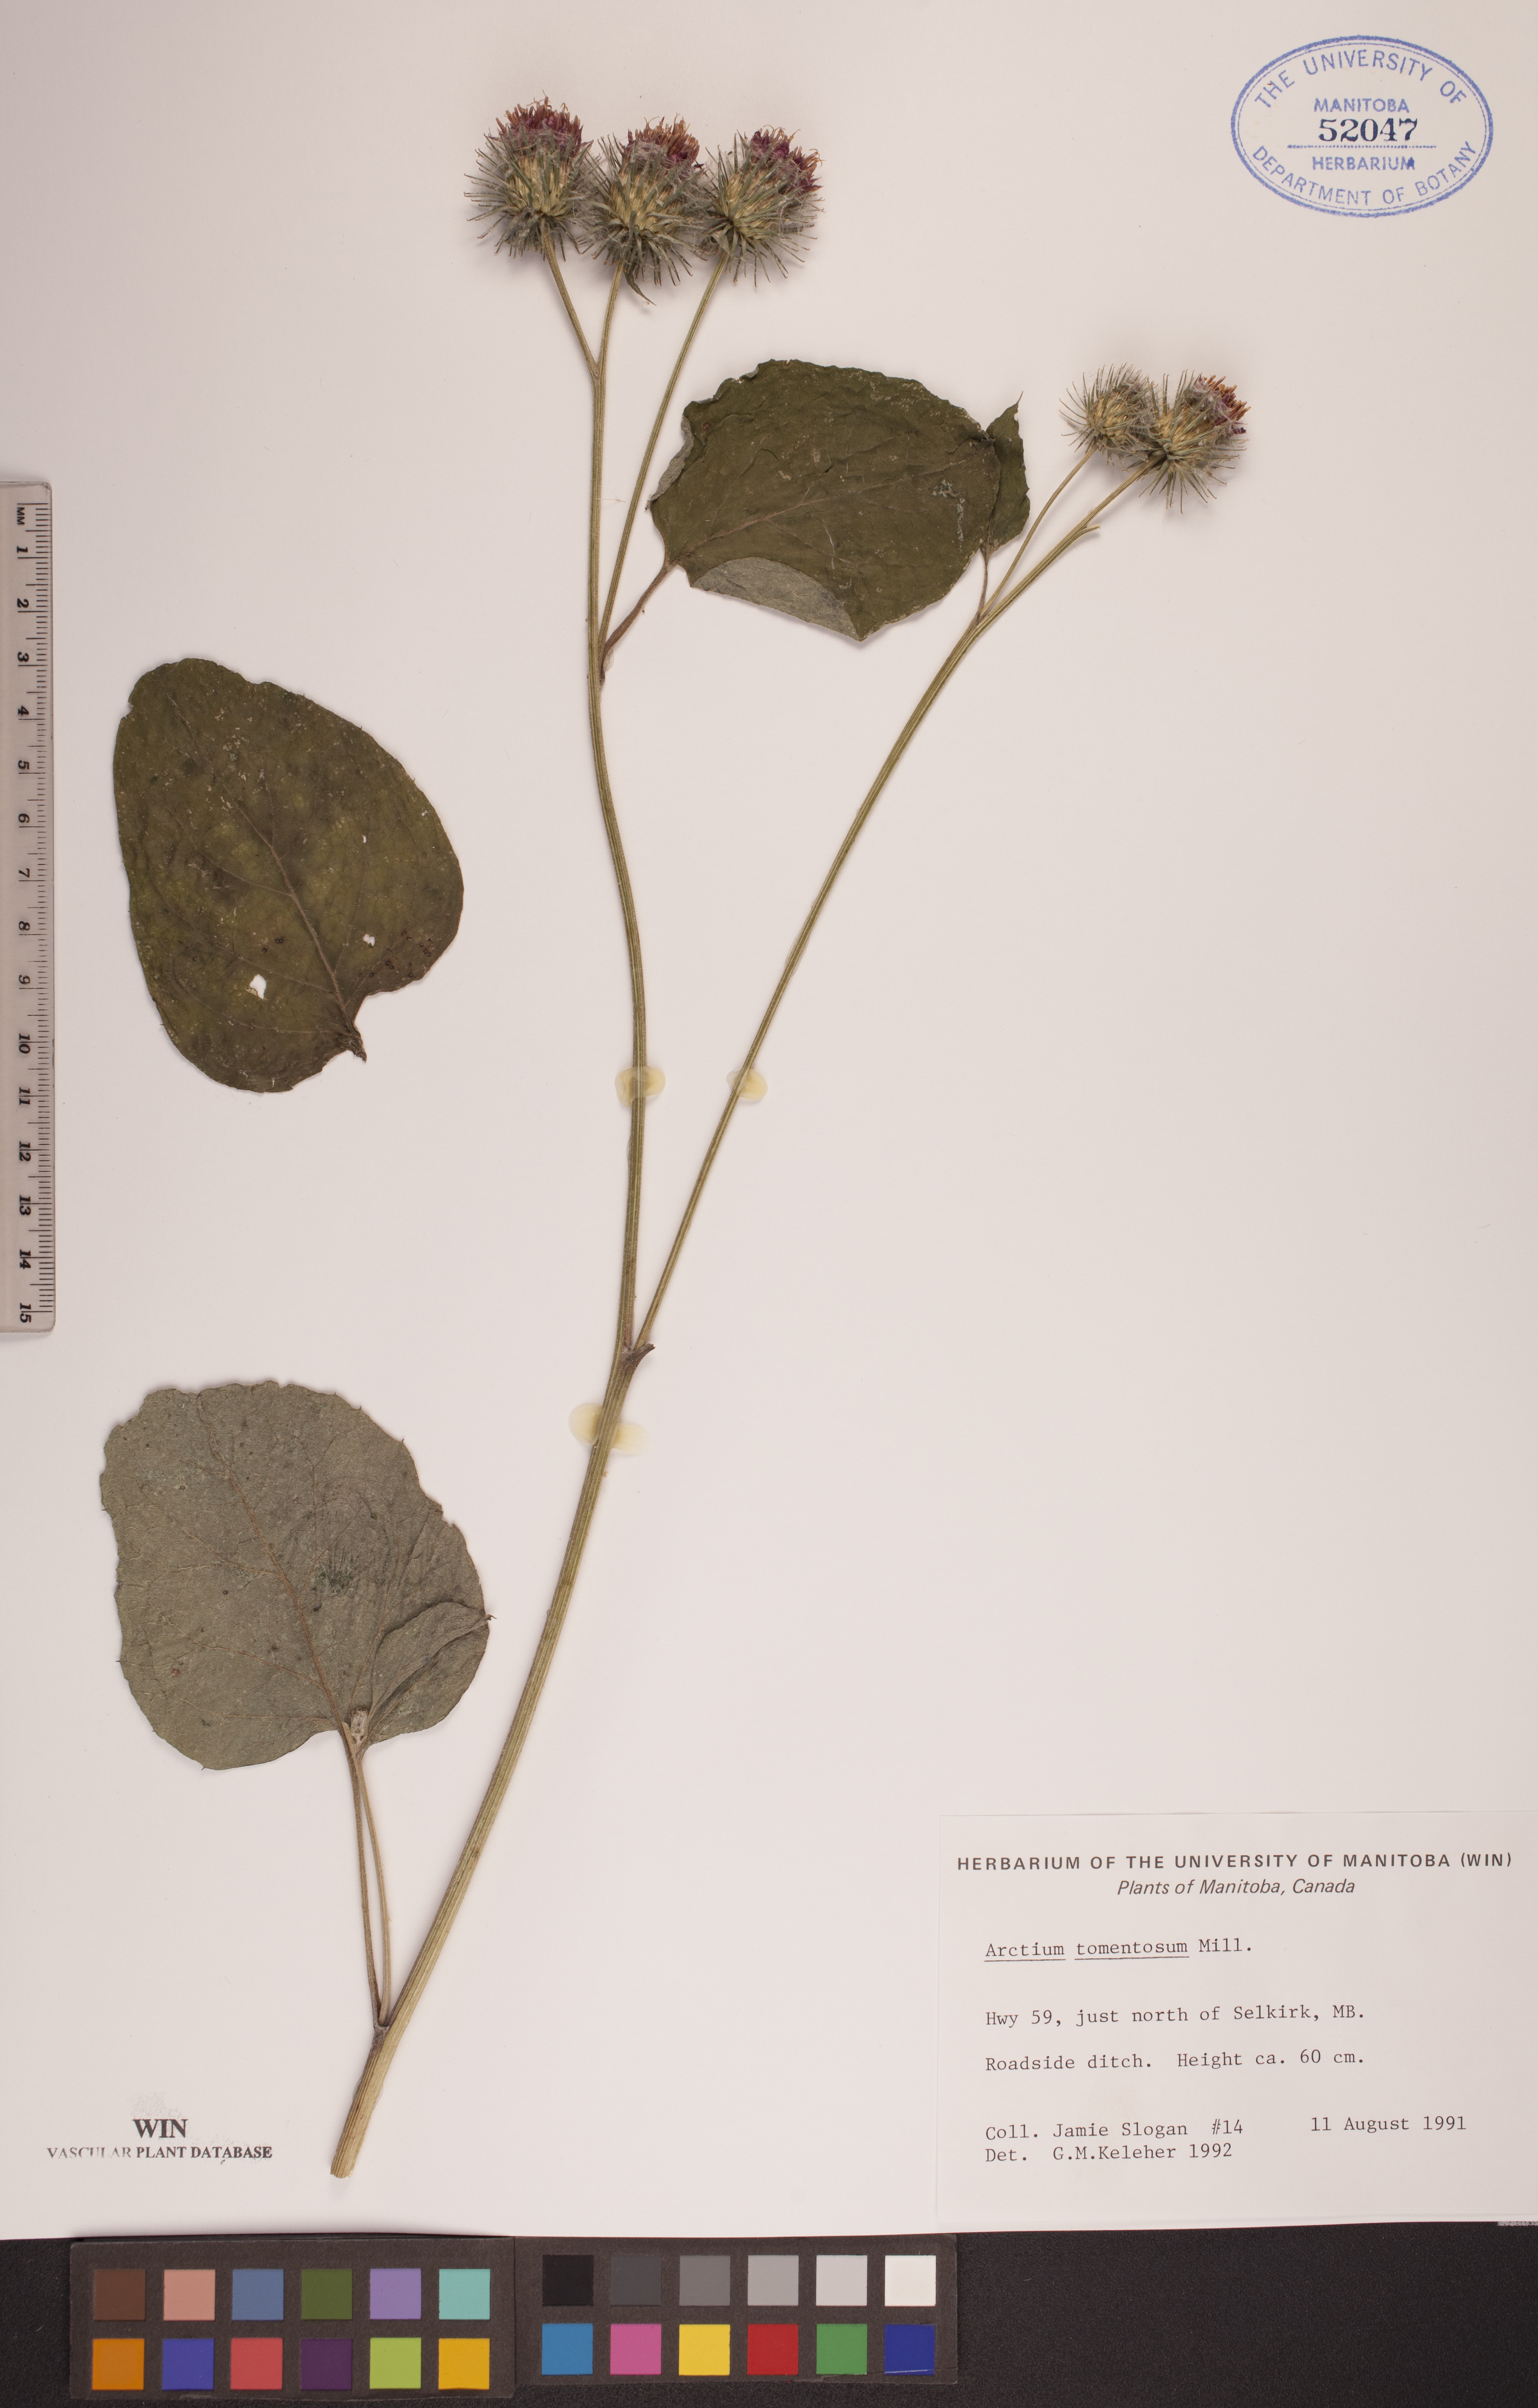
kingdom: Plantae
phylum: Tracheophyta
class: Magnoliopsida
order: Asterales
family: Asteraceae
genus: Arctium
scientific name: Arctium tomentosum
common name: Woolly burdock
